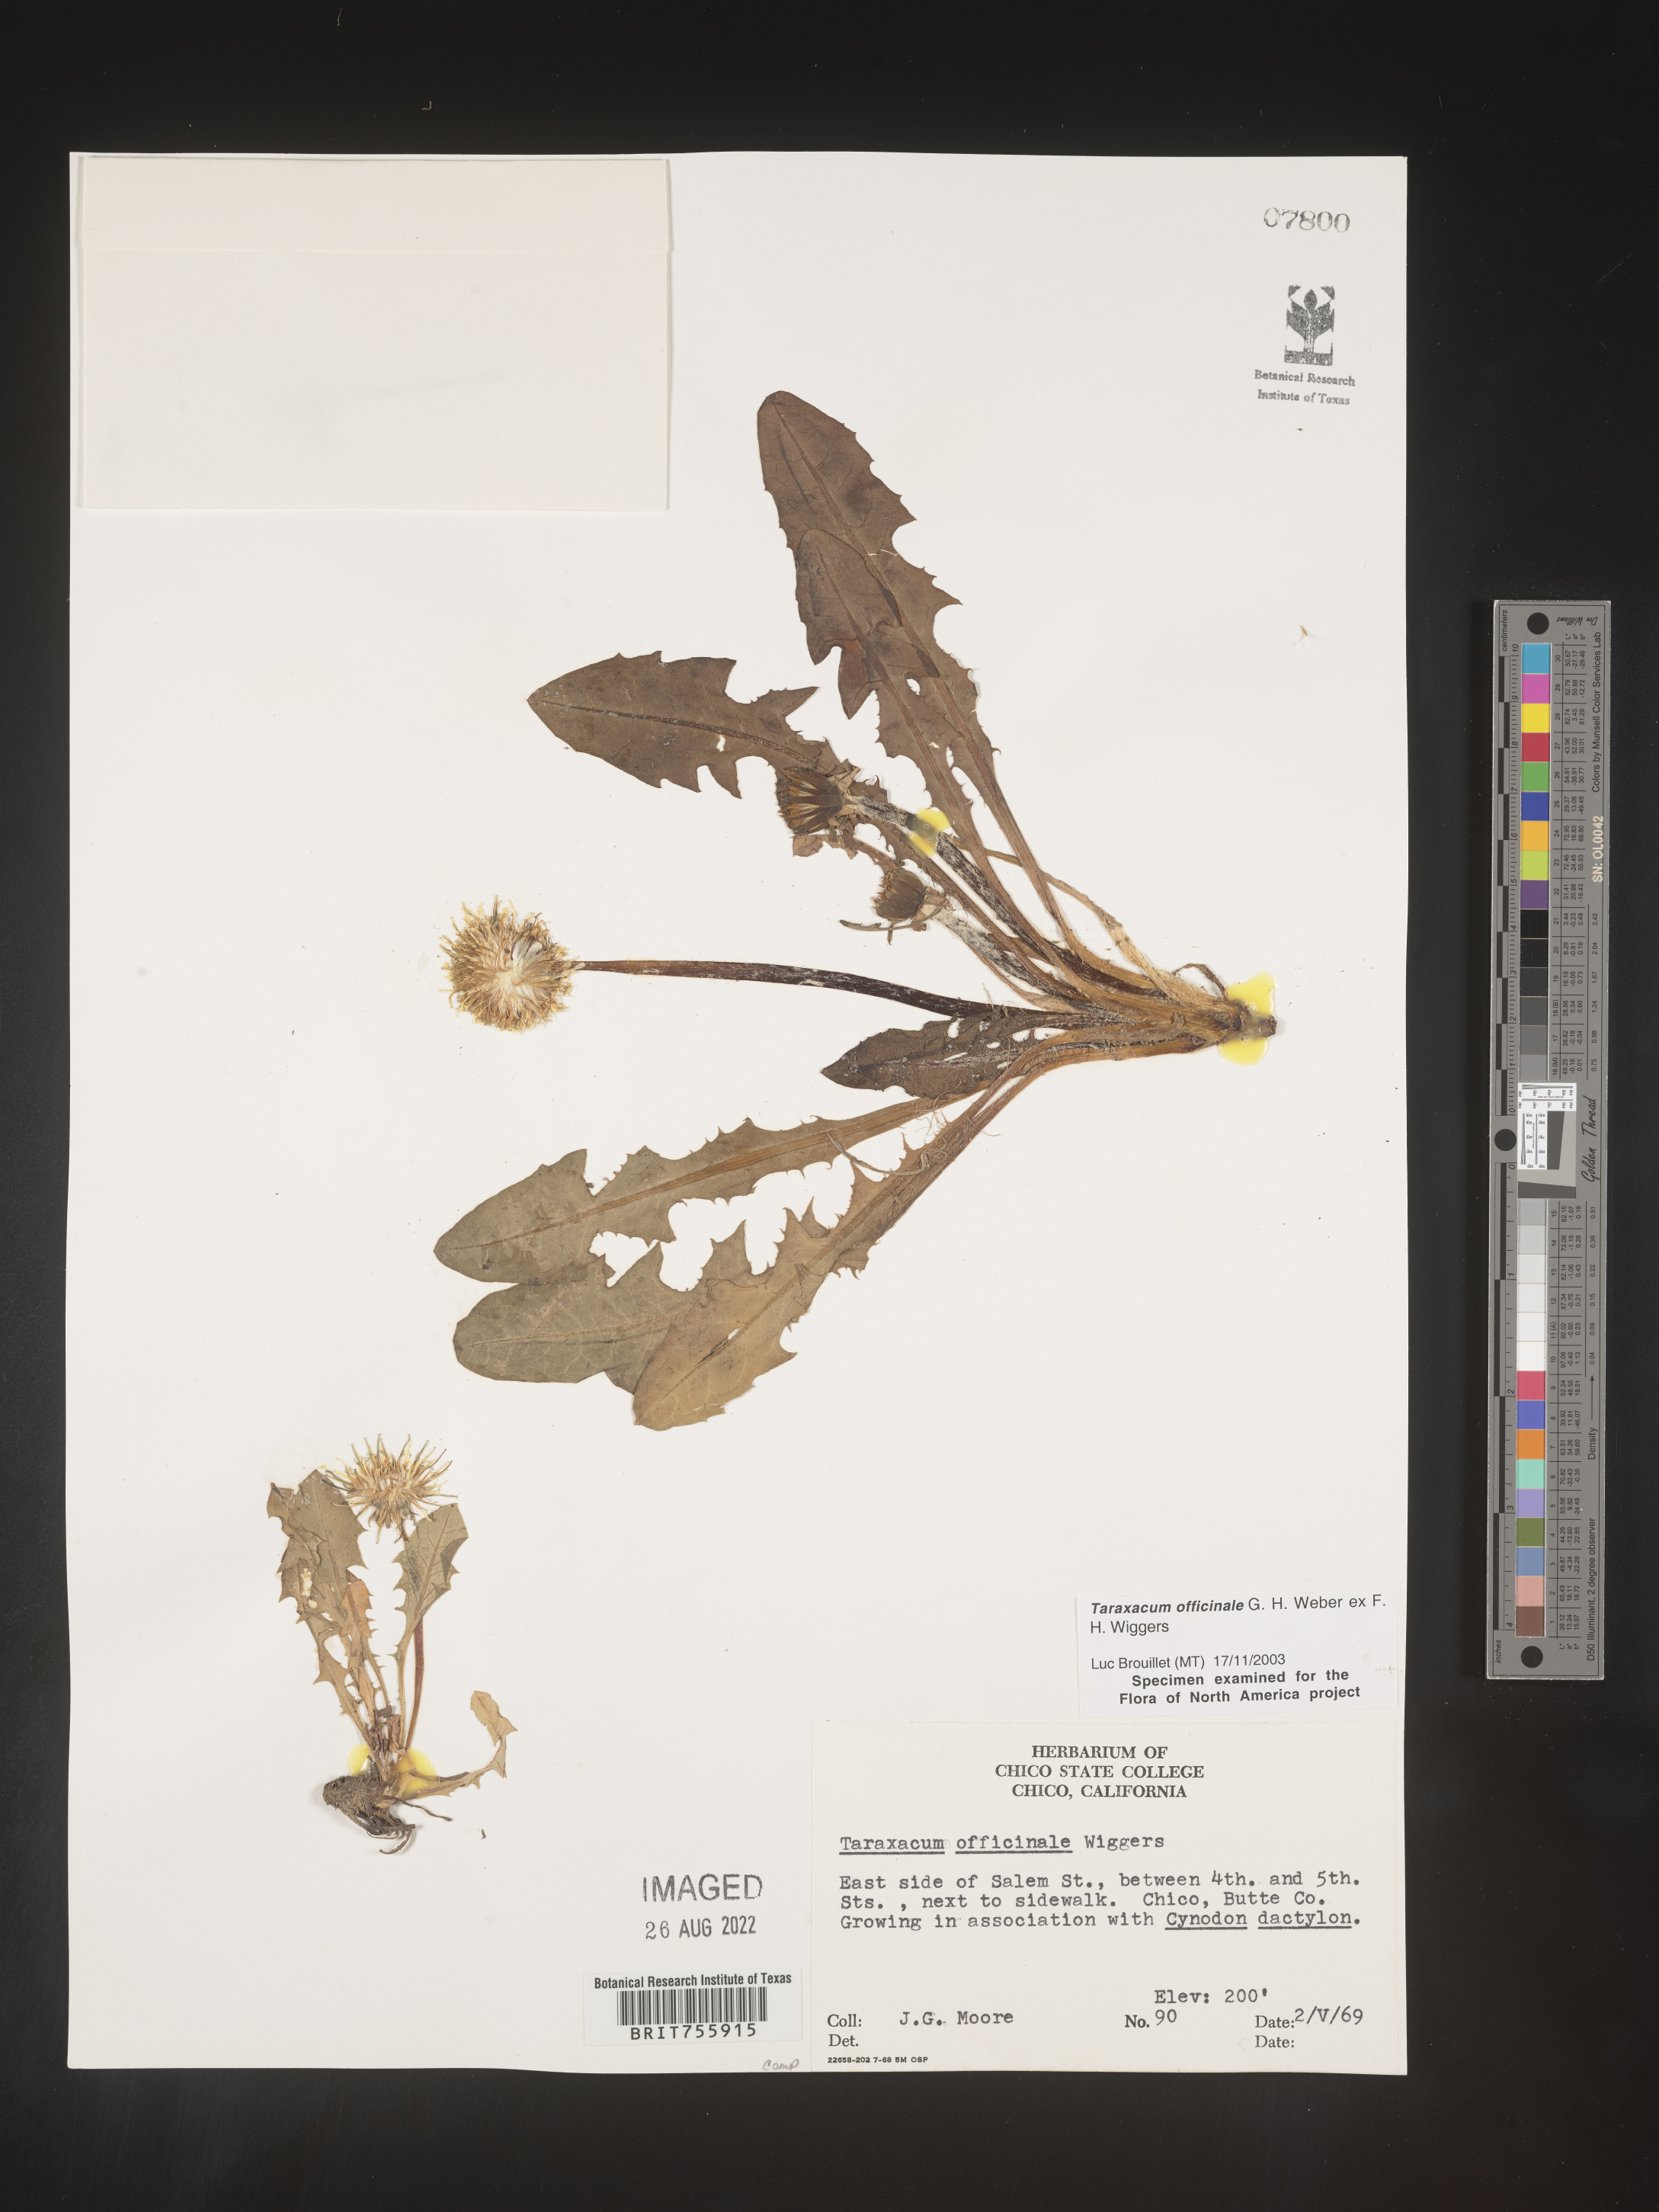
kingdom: Plantae
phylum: Tracheophyta
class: Magnoliopsida
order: Asterales
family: Asteraceae
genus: Taraxacum
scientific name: Taraxacum officinale
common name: Common dandelion
